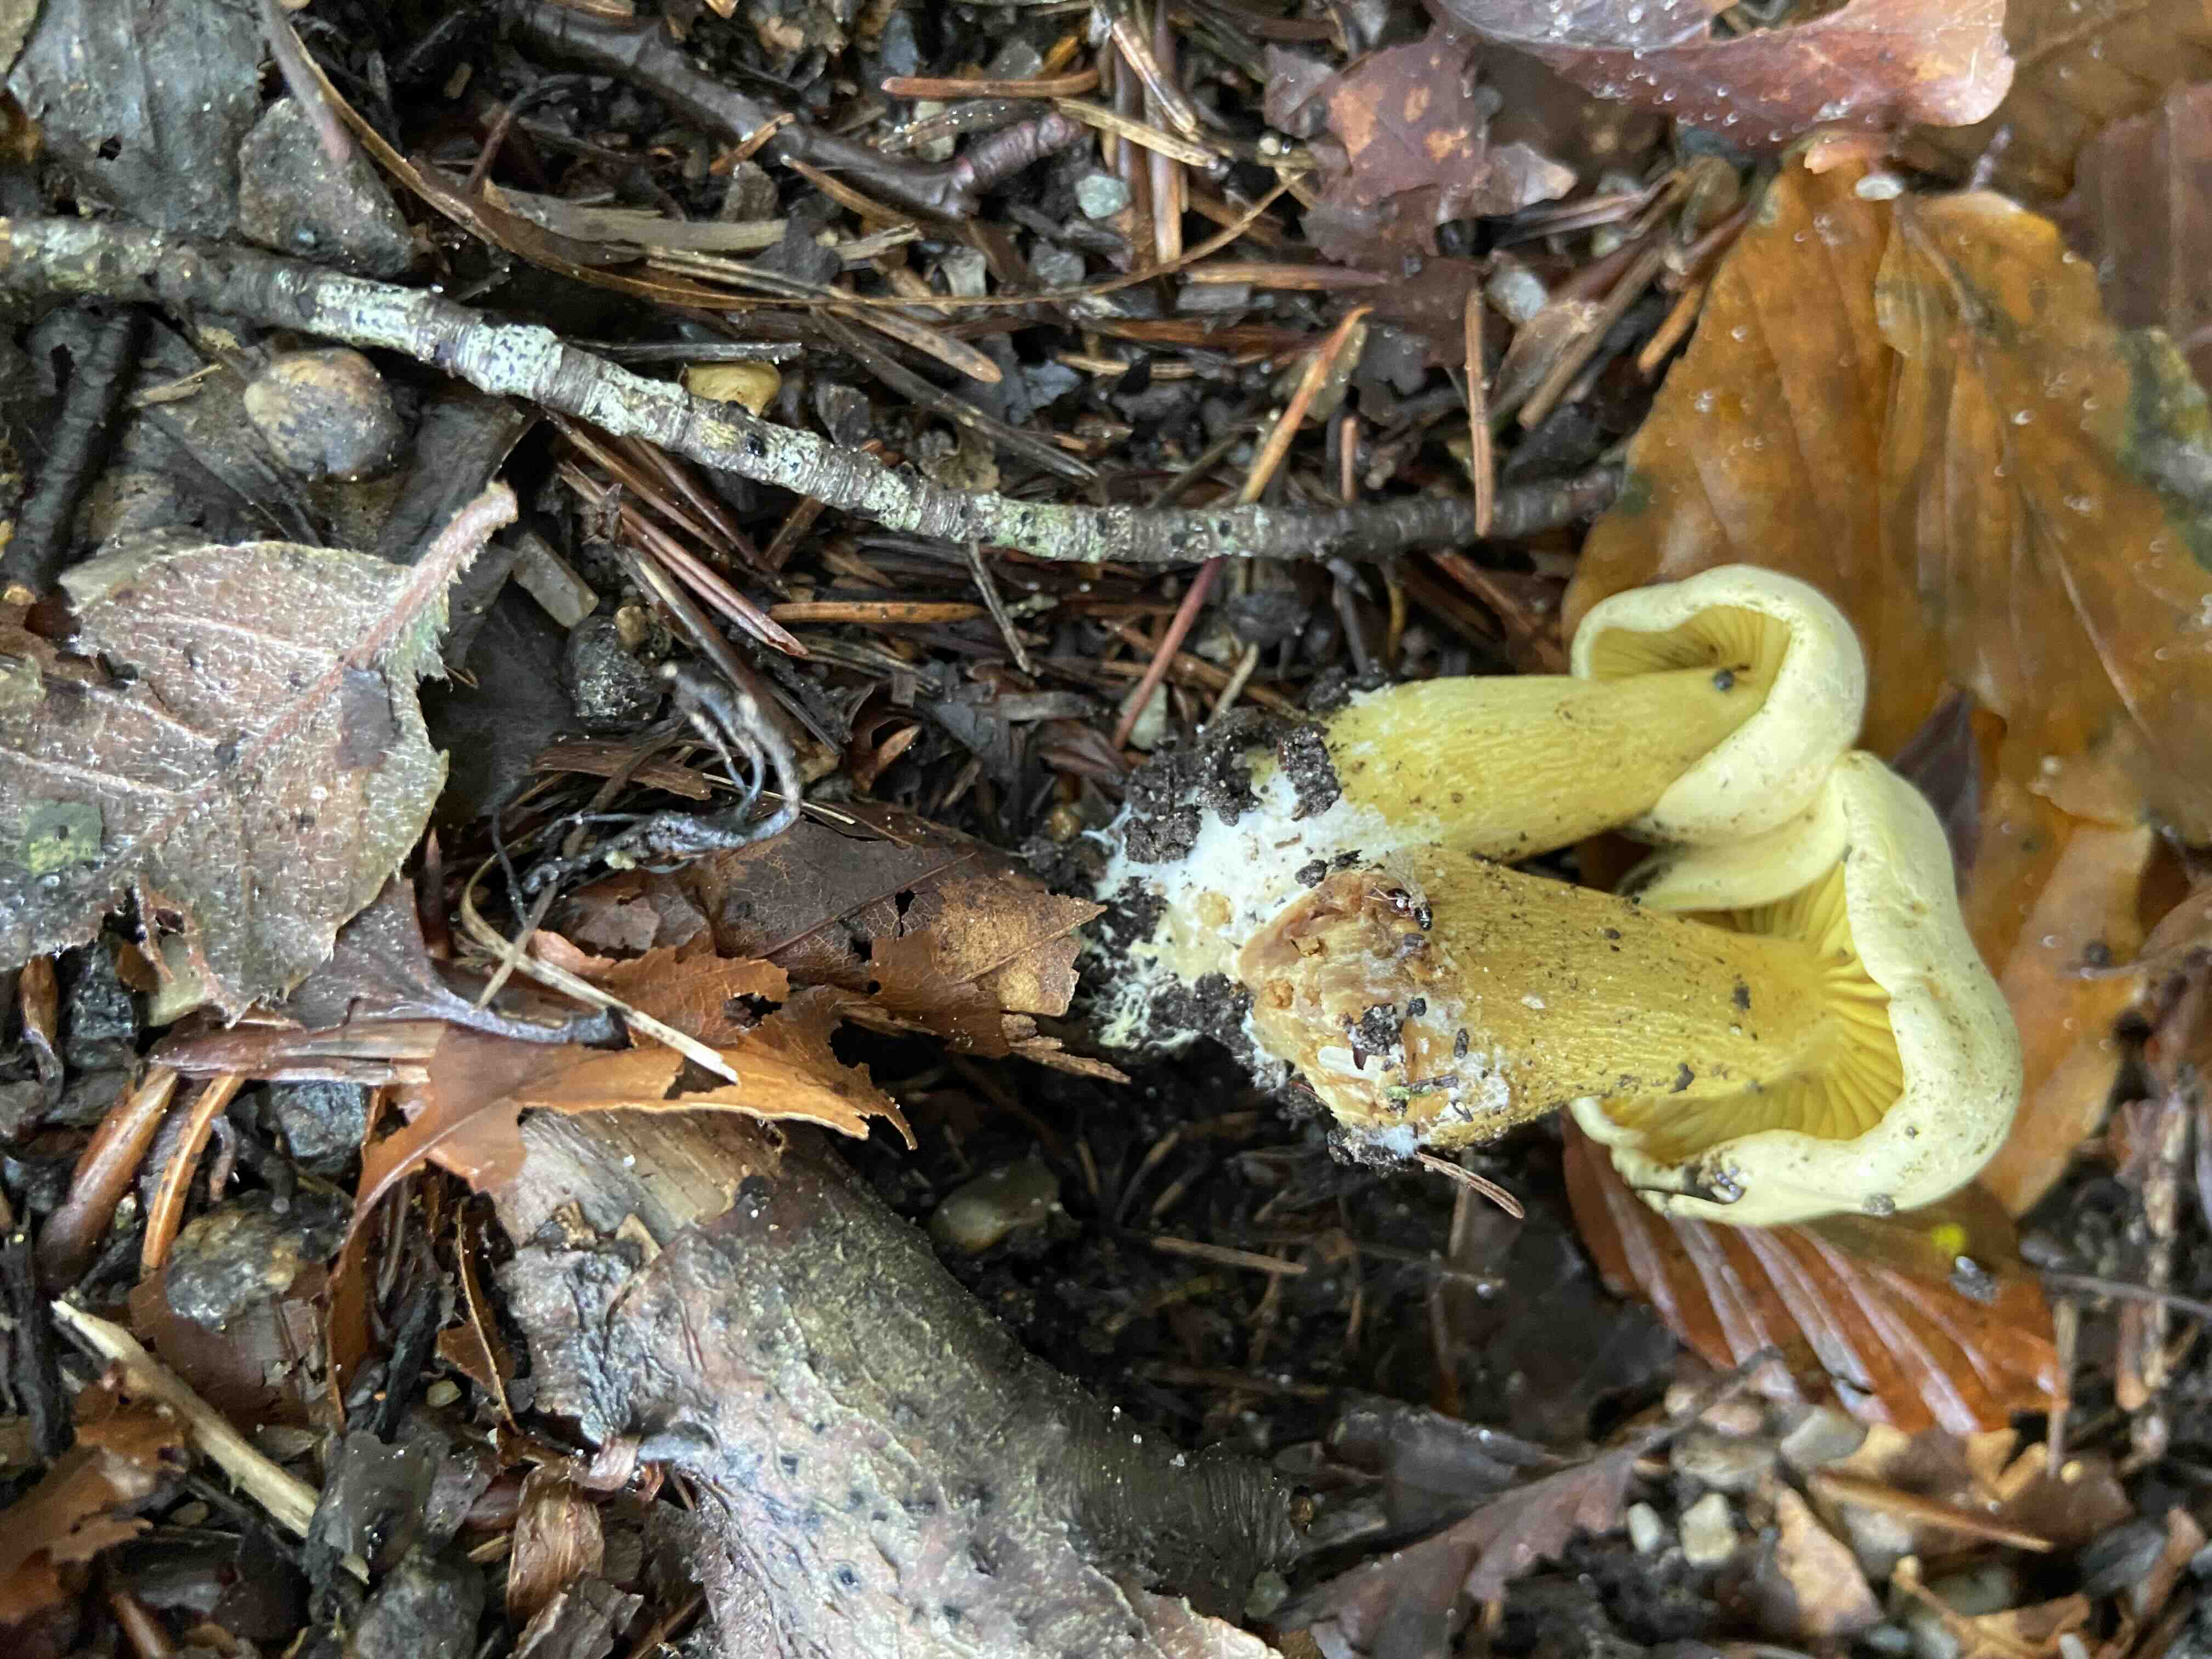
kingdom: Fungi
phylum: Basidiomycota
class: Agaricomycetes
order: Agaricales
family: Tricholomataceae
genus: Tricholoma
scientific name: Tricholoma sulphureum
